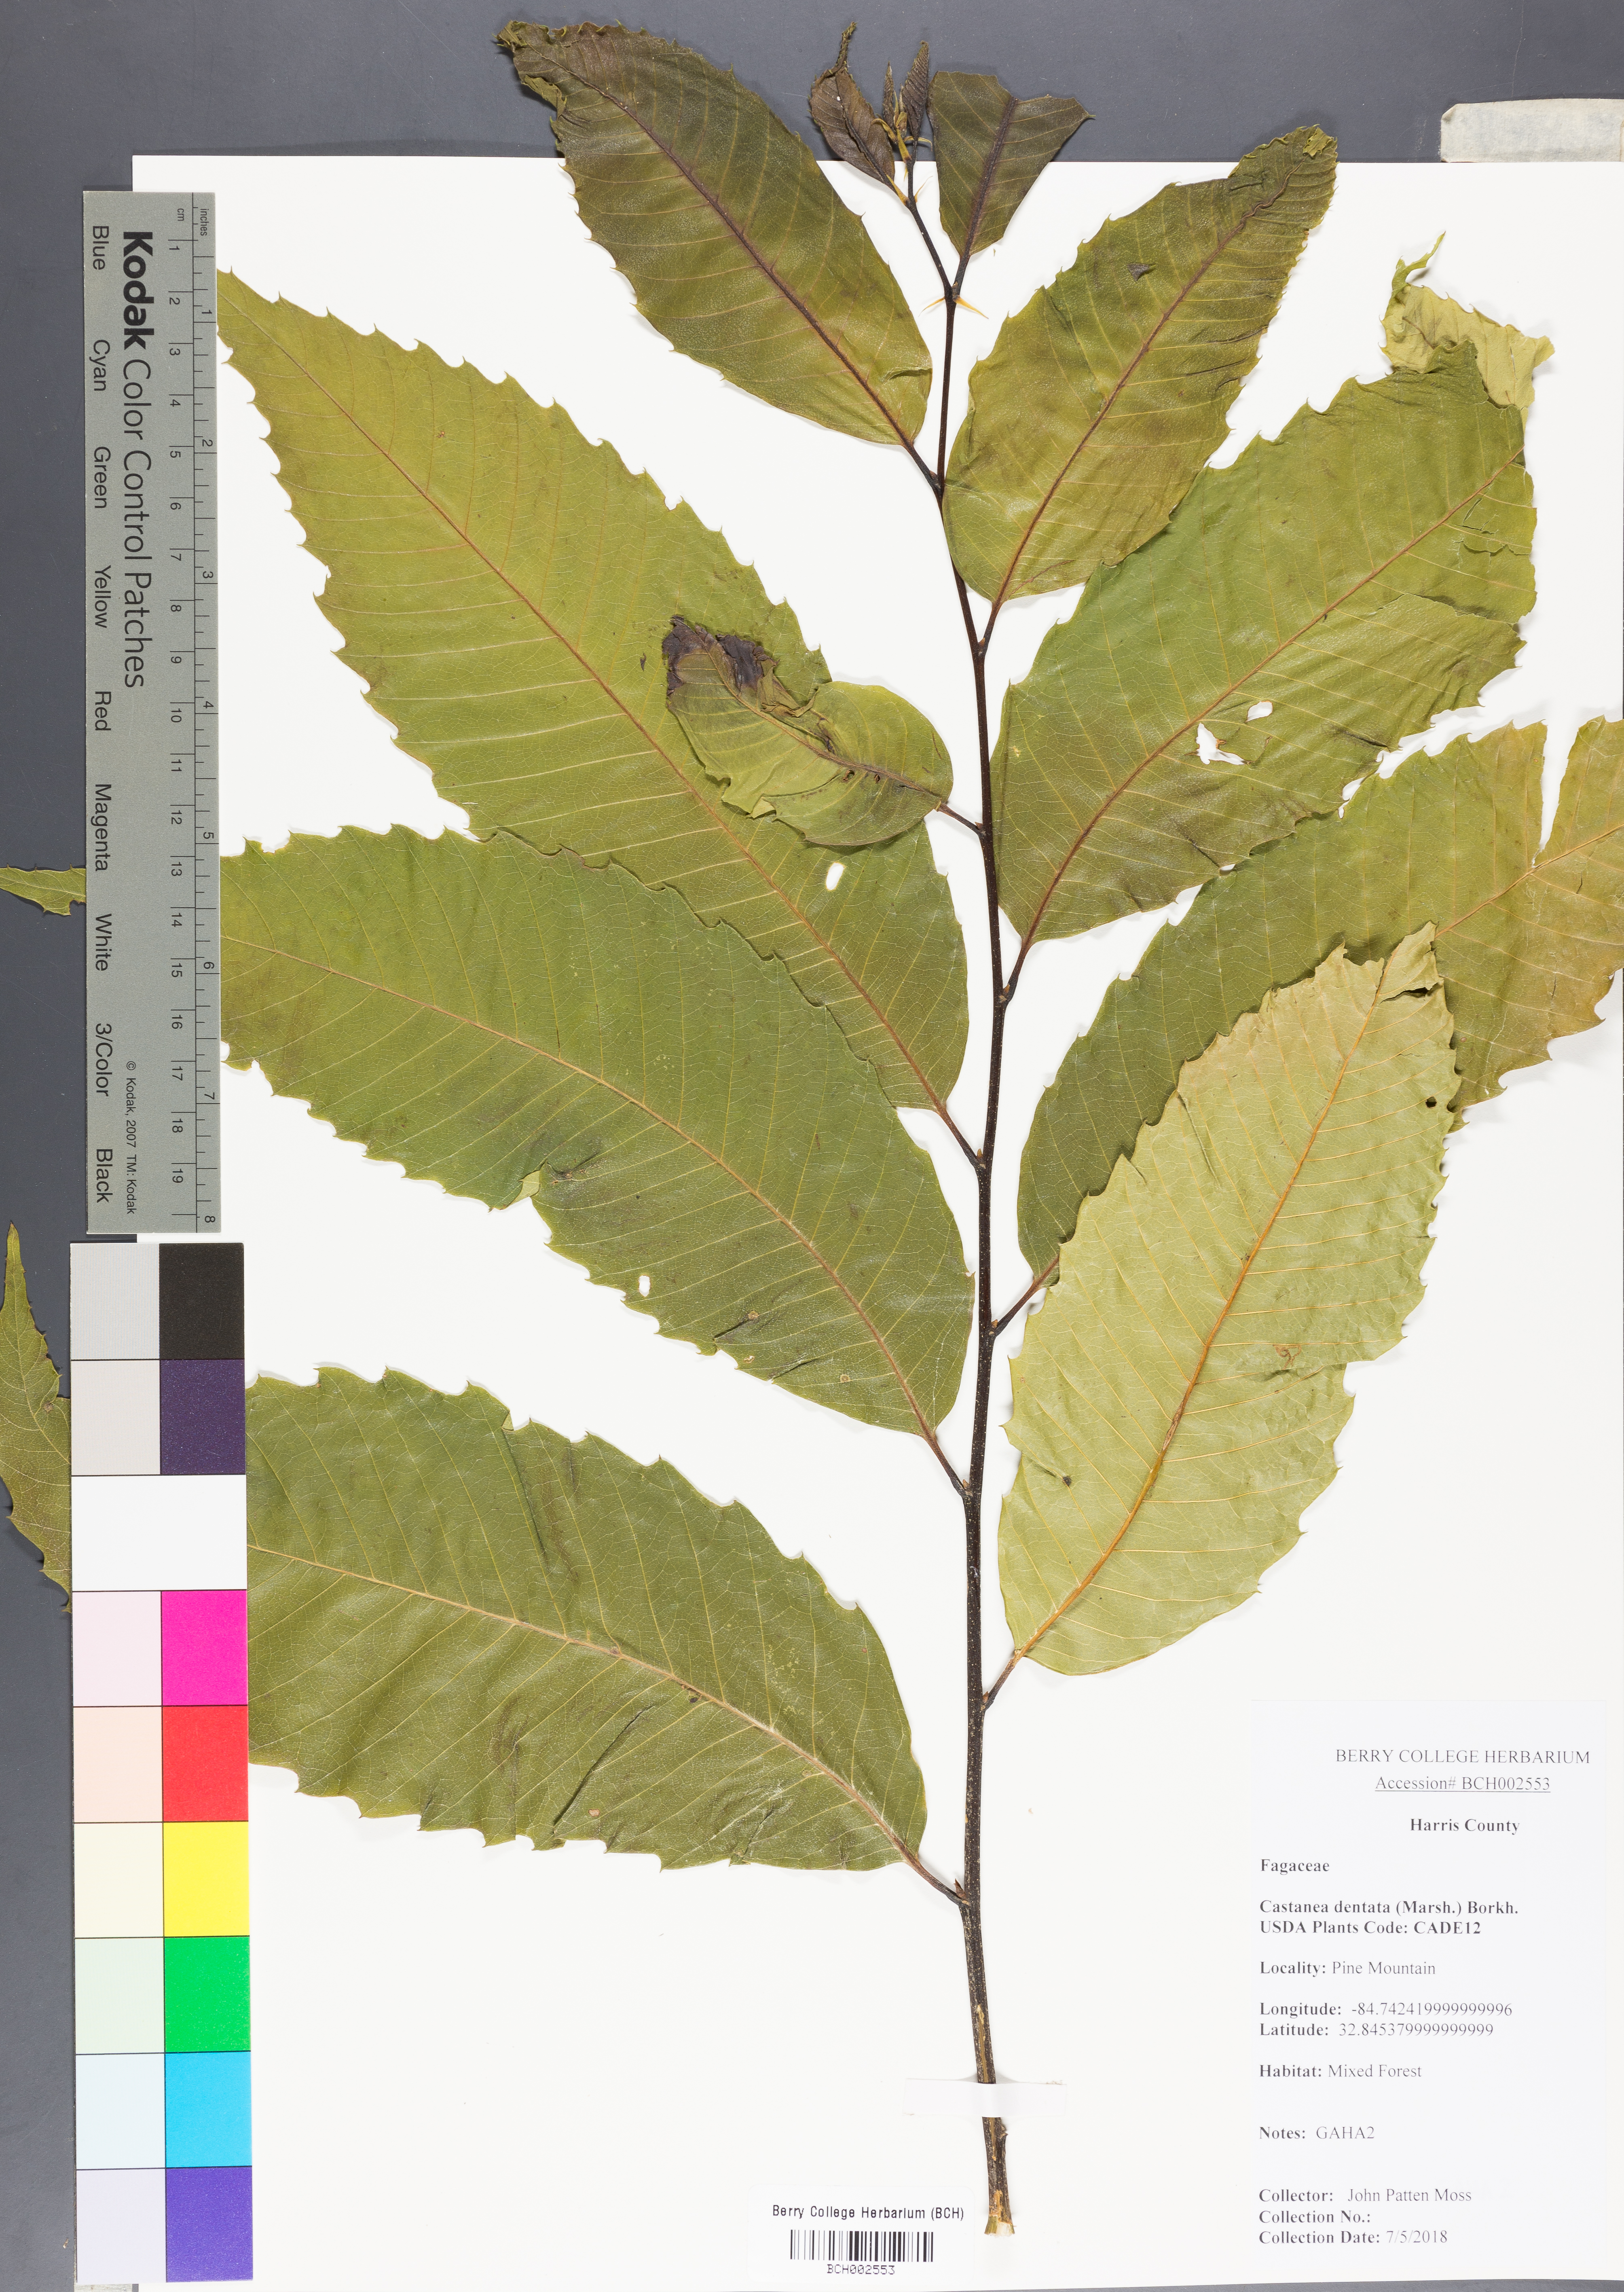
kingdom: Plantae
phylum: Tracheophyta
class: Magnoliopsida
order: Fagales
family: Fagaceae
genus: Castanea
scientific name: Castanea dentata
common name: American chestnut
